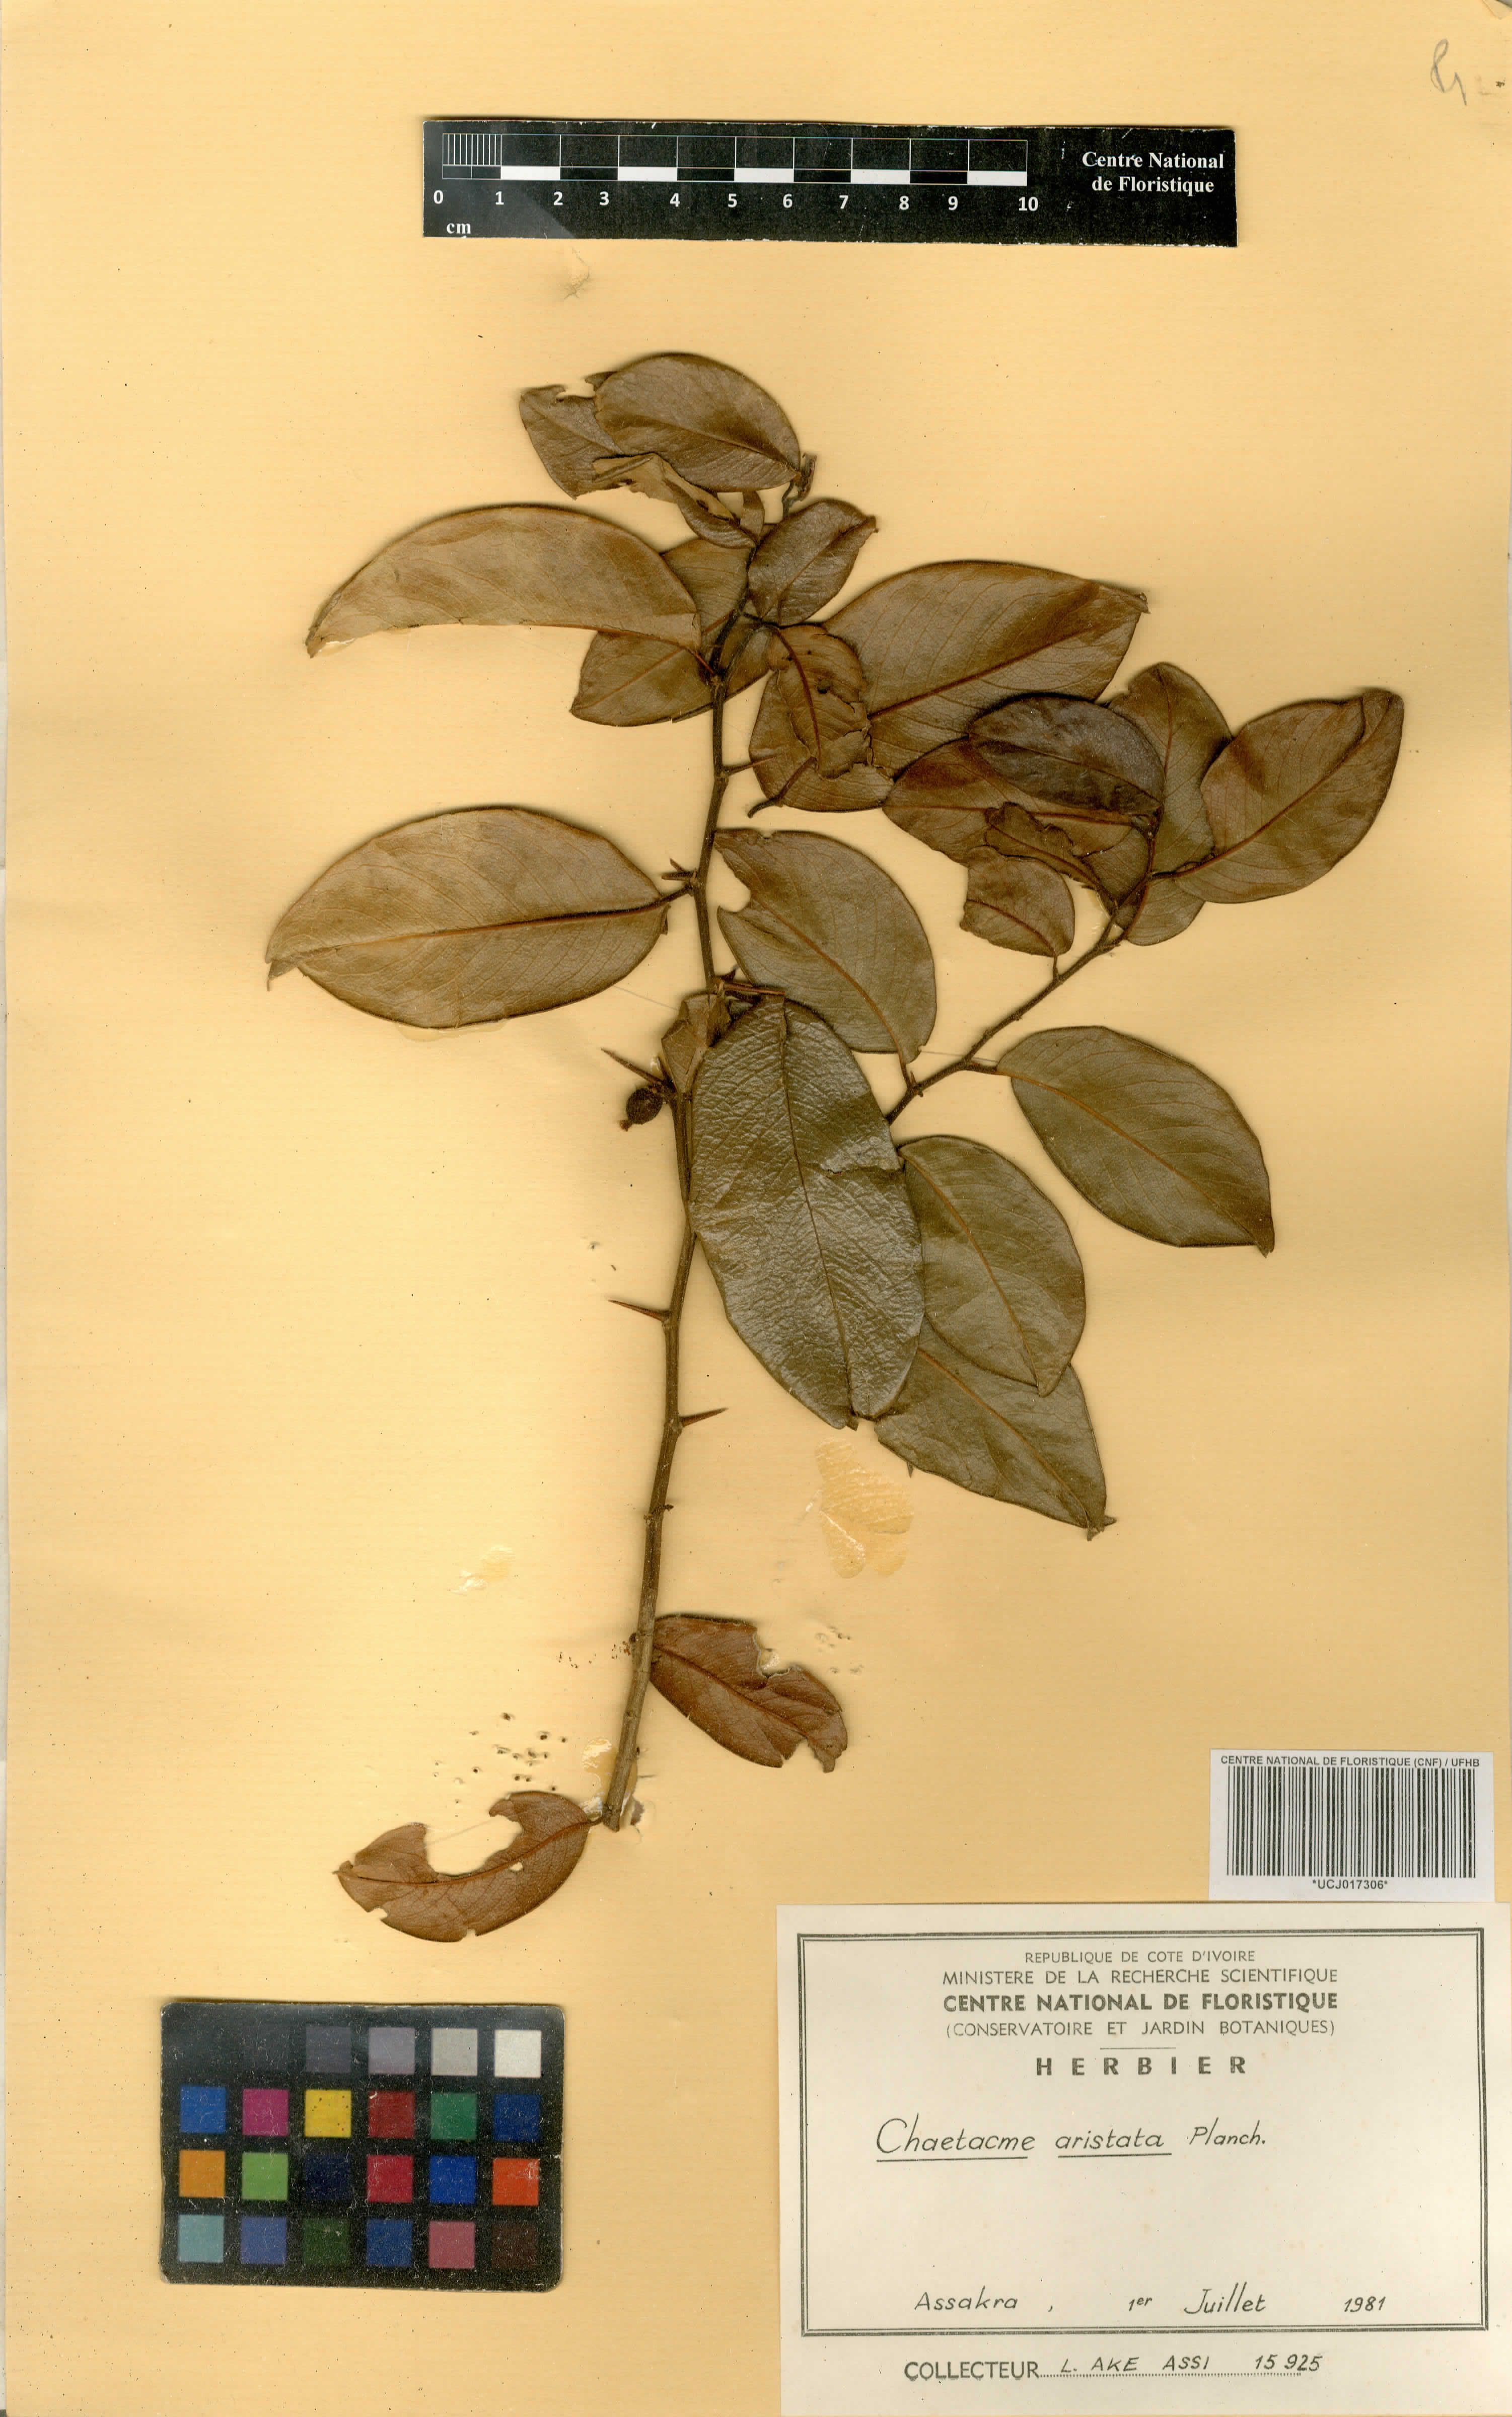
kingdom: Plantae
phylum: Tracheophyta
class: Magnoliopsida
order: Rosales
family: Cannabaceae
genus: Chaetachme
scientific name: Chaetachme aristata
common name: Thorny elm
